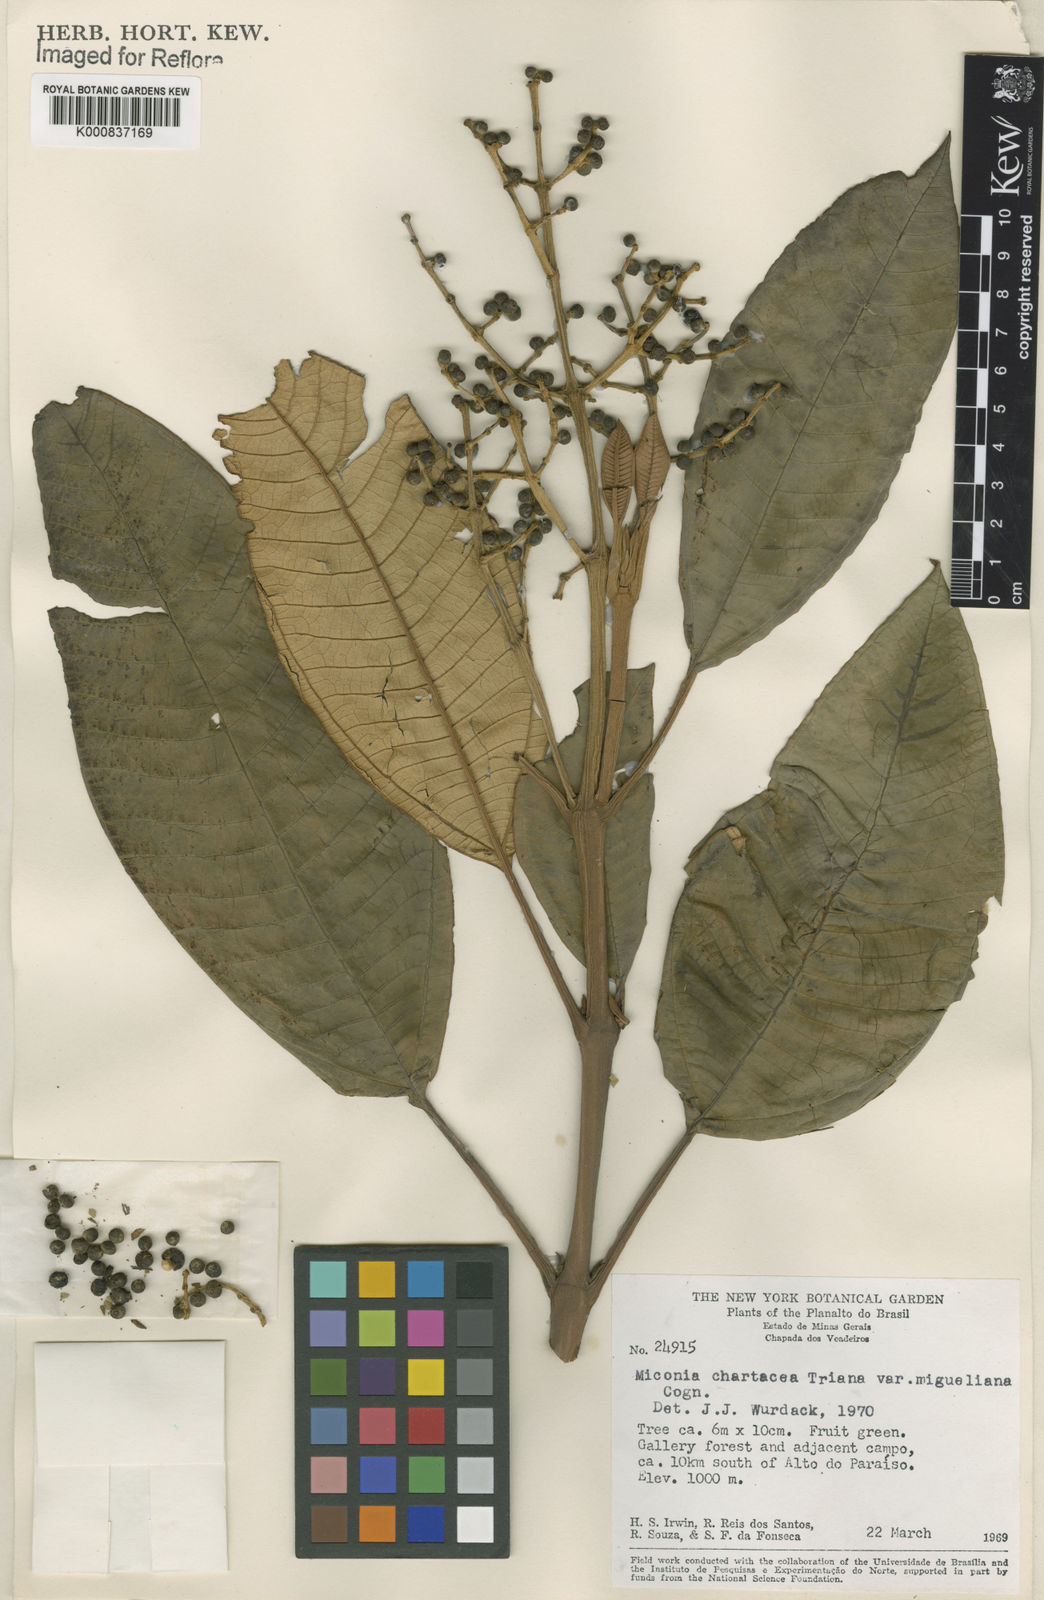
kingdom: Plantae
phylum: Tracheophyta
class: Magnoliopsida
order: Myrtales
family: Melastomataceae
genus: Miconia
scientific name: Miconia chartacea
